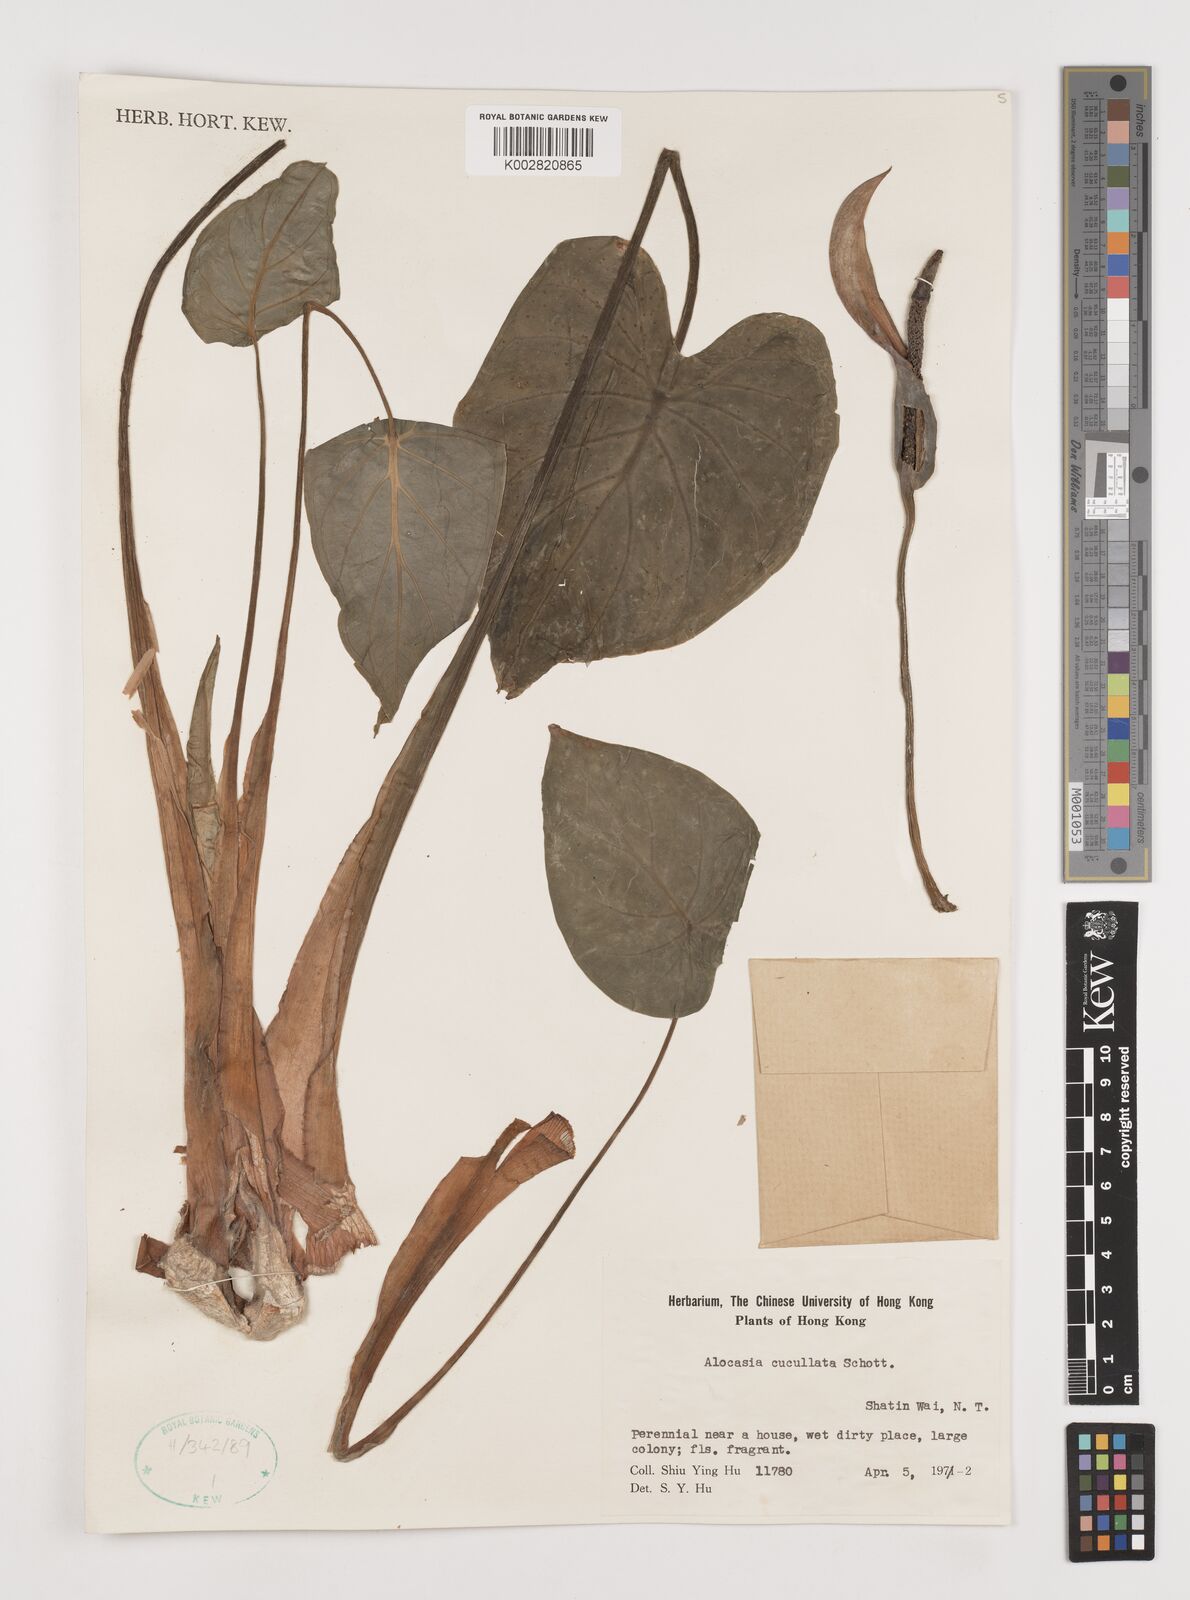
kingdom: Plantae
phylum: Tracheophyta
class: Liliopsida
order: Alismatales
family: Araceae
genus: Alocasia
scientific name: Alocasia cucullata
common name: Buddha's hand
